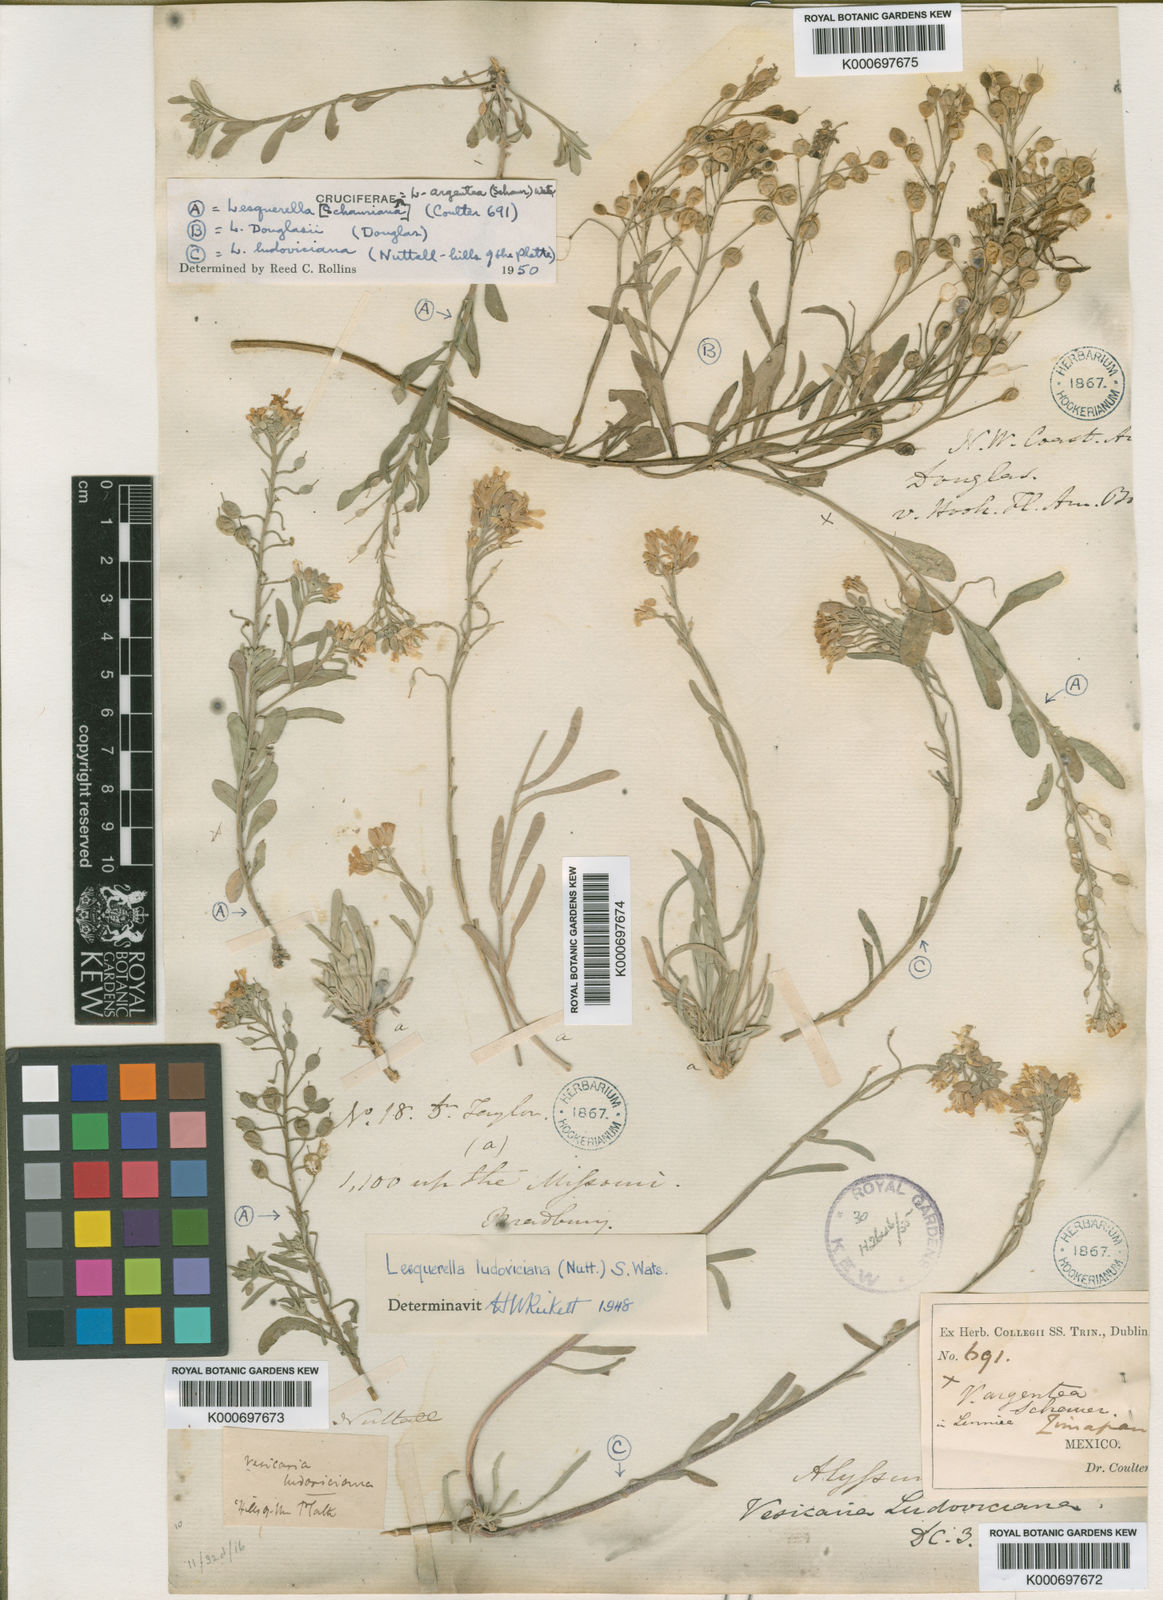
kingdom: Plantae
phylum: Tracheophyta
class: Magnoliopsida
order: Brassicales
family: Brassicaceae
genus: Physaria
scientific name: Physaria douglasii
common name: Douglas's bladderpod
